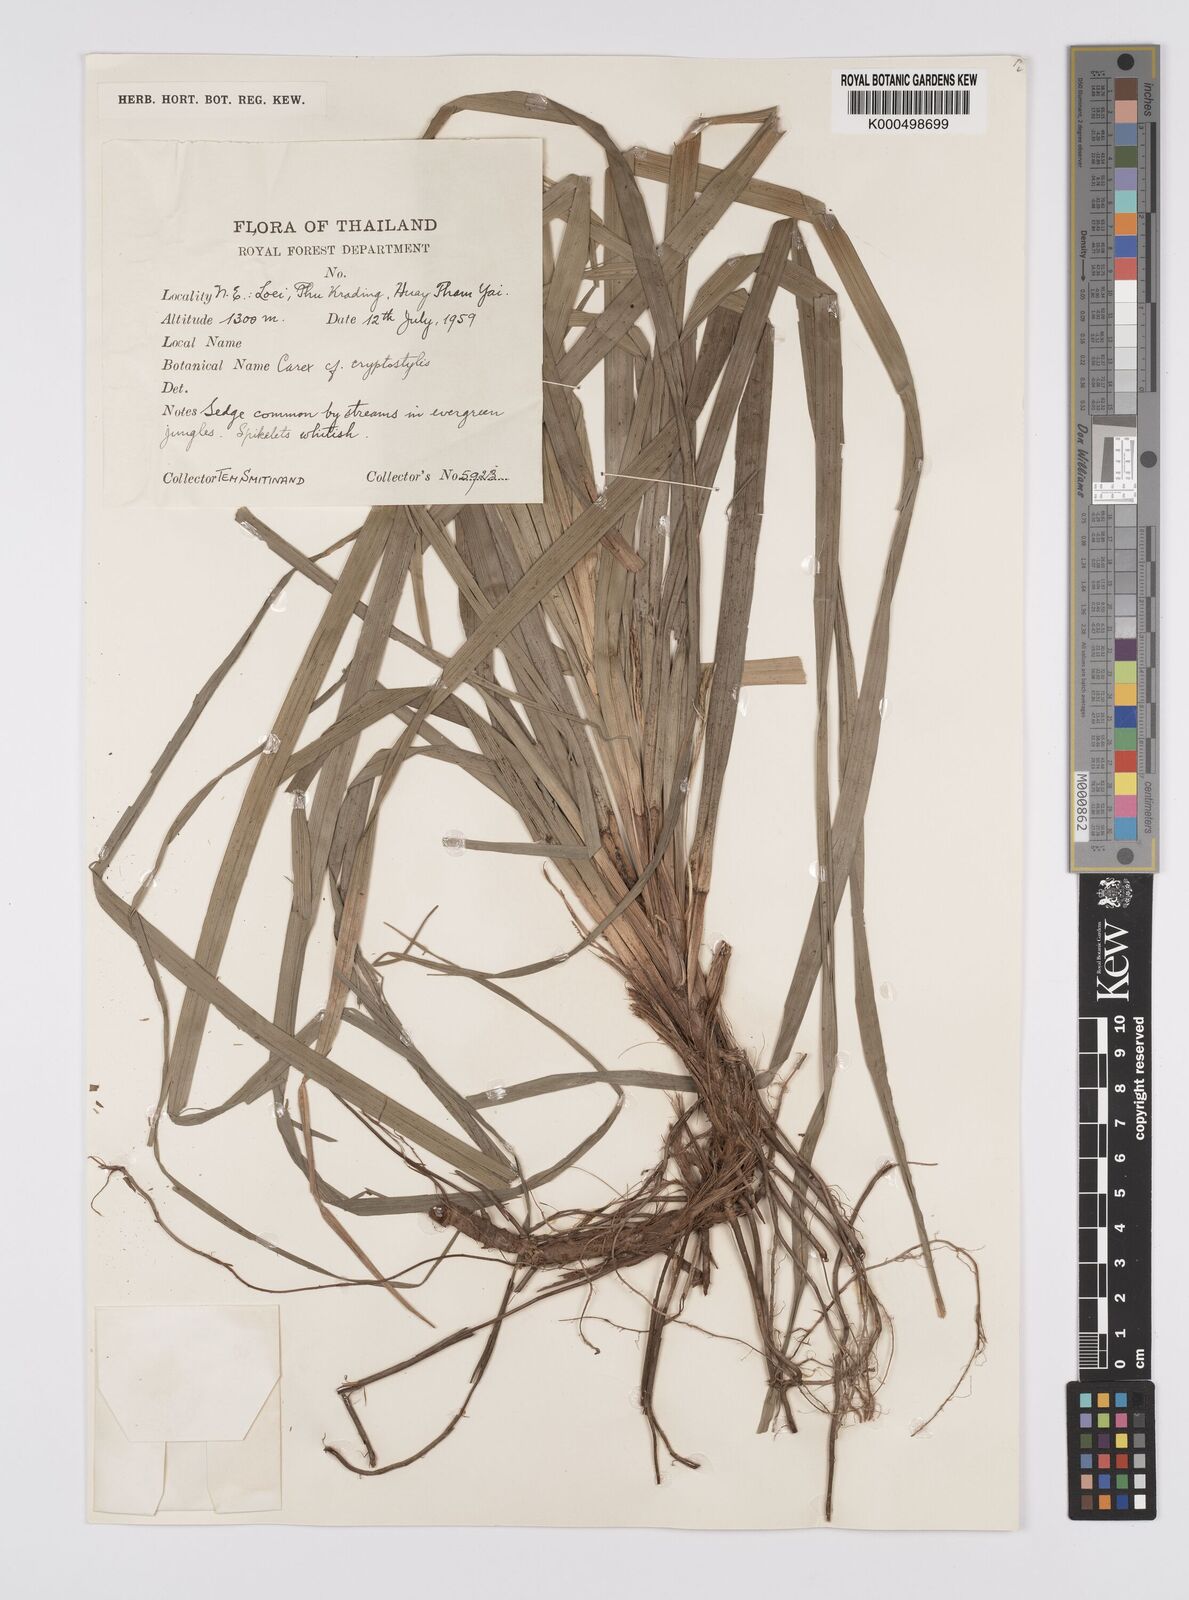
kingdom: Plantae
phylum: Tracheophyta
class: Liliopsida
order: Poales
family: Cyperaceae
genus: Carex
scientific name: Carex
